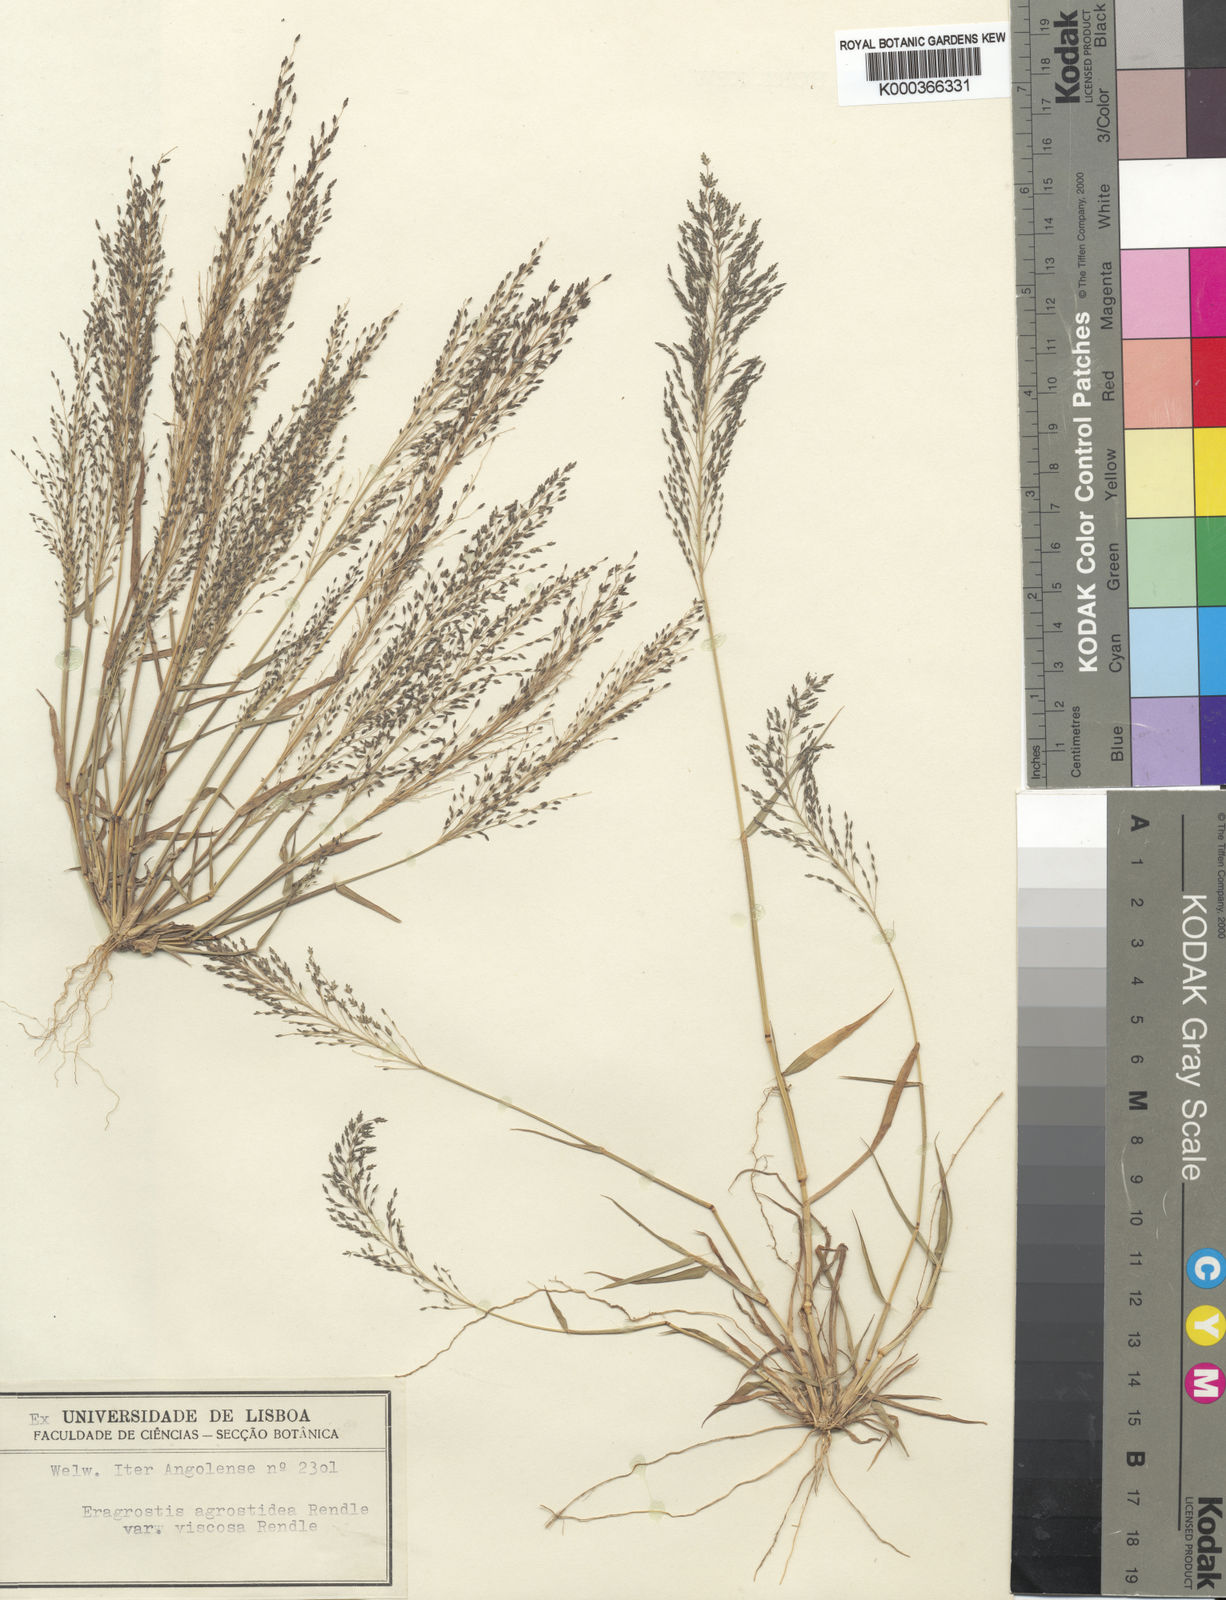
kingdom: Plantae
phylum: Tracheophyta
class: Liliopsida
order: Poales
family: Poaceae
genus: Eragrostis
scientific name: Eragrostis cylindriflora
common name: Cylinderflower lovegrass
